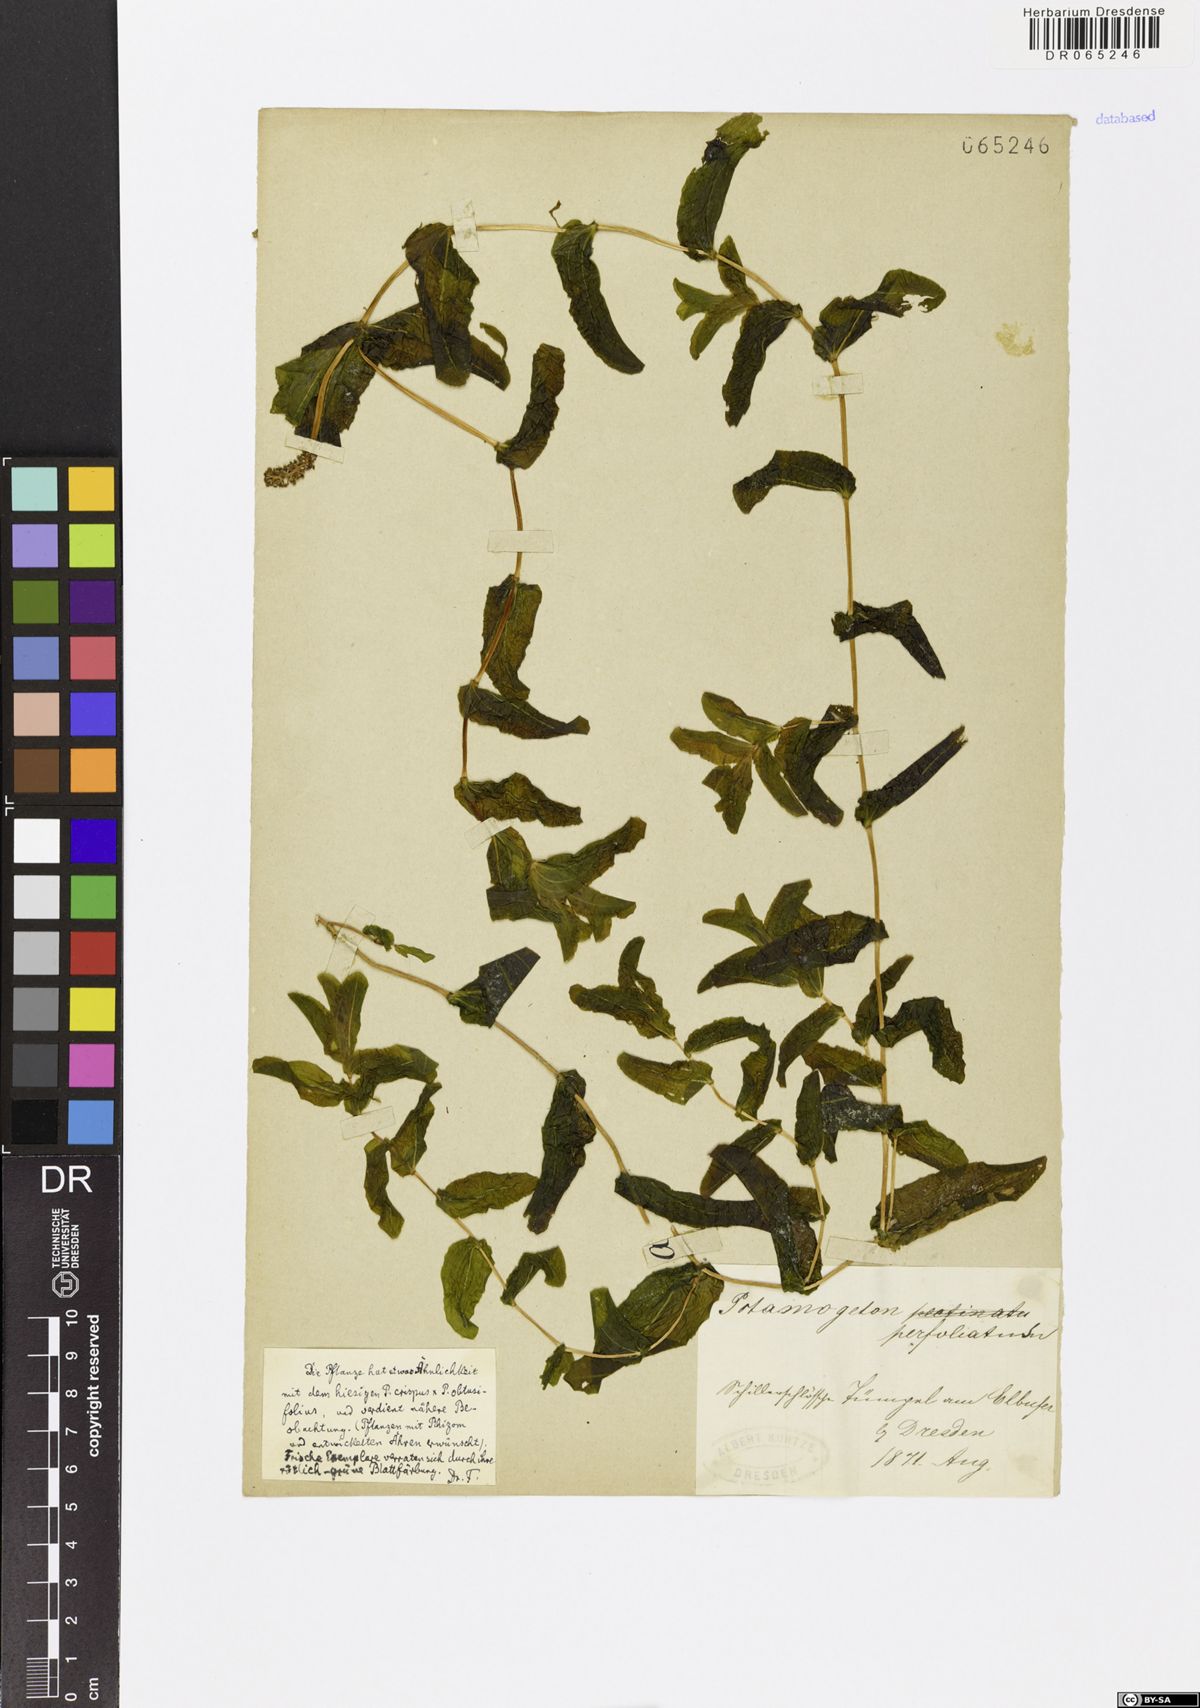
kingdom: Plantae
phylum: Tracheophyta
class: Liliopsida
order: Alismatales
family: Potamogetonaceae
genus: Potamogeton
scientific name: Potamogeton perfoliatus
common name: Perfoliate pondweed
